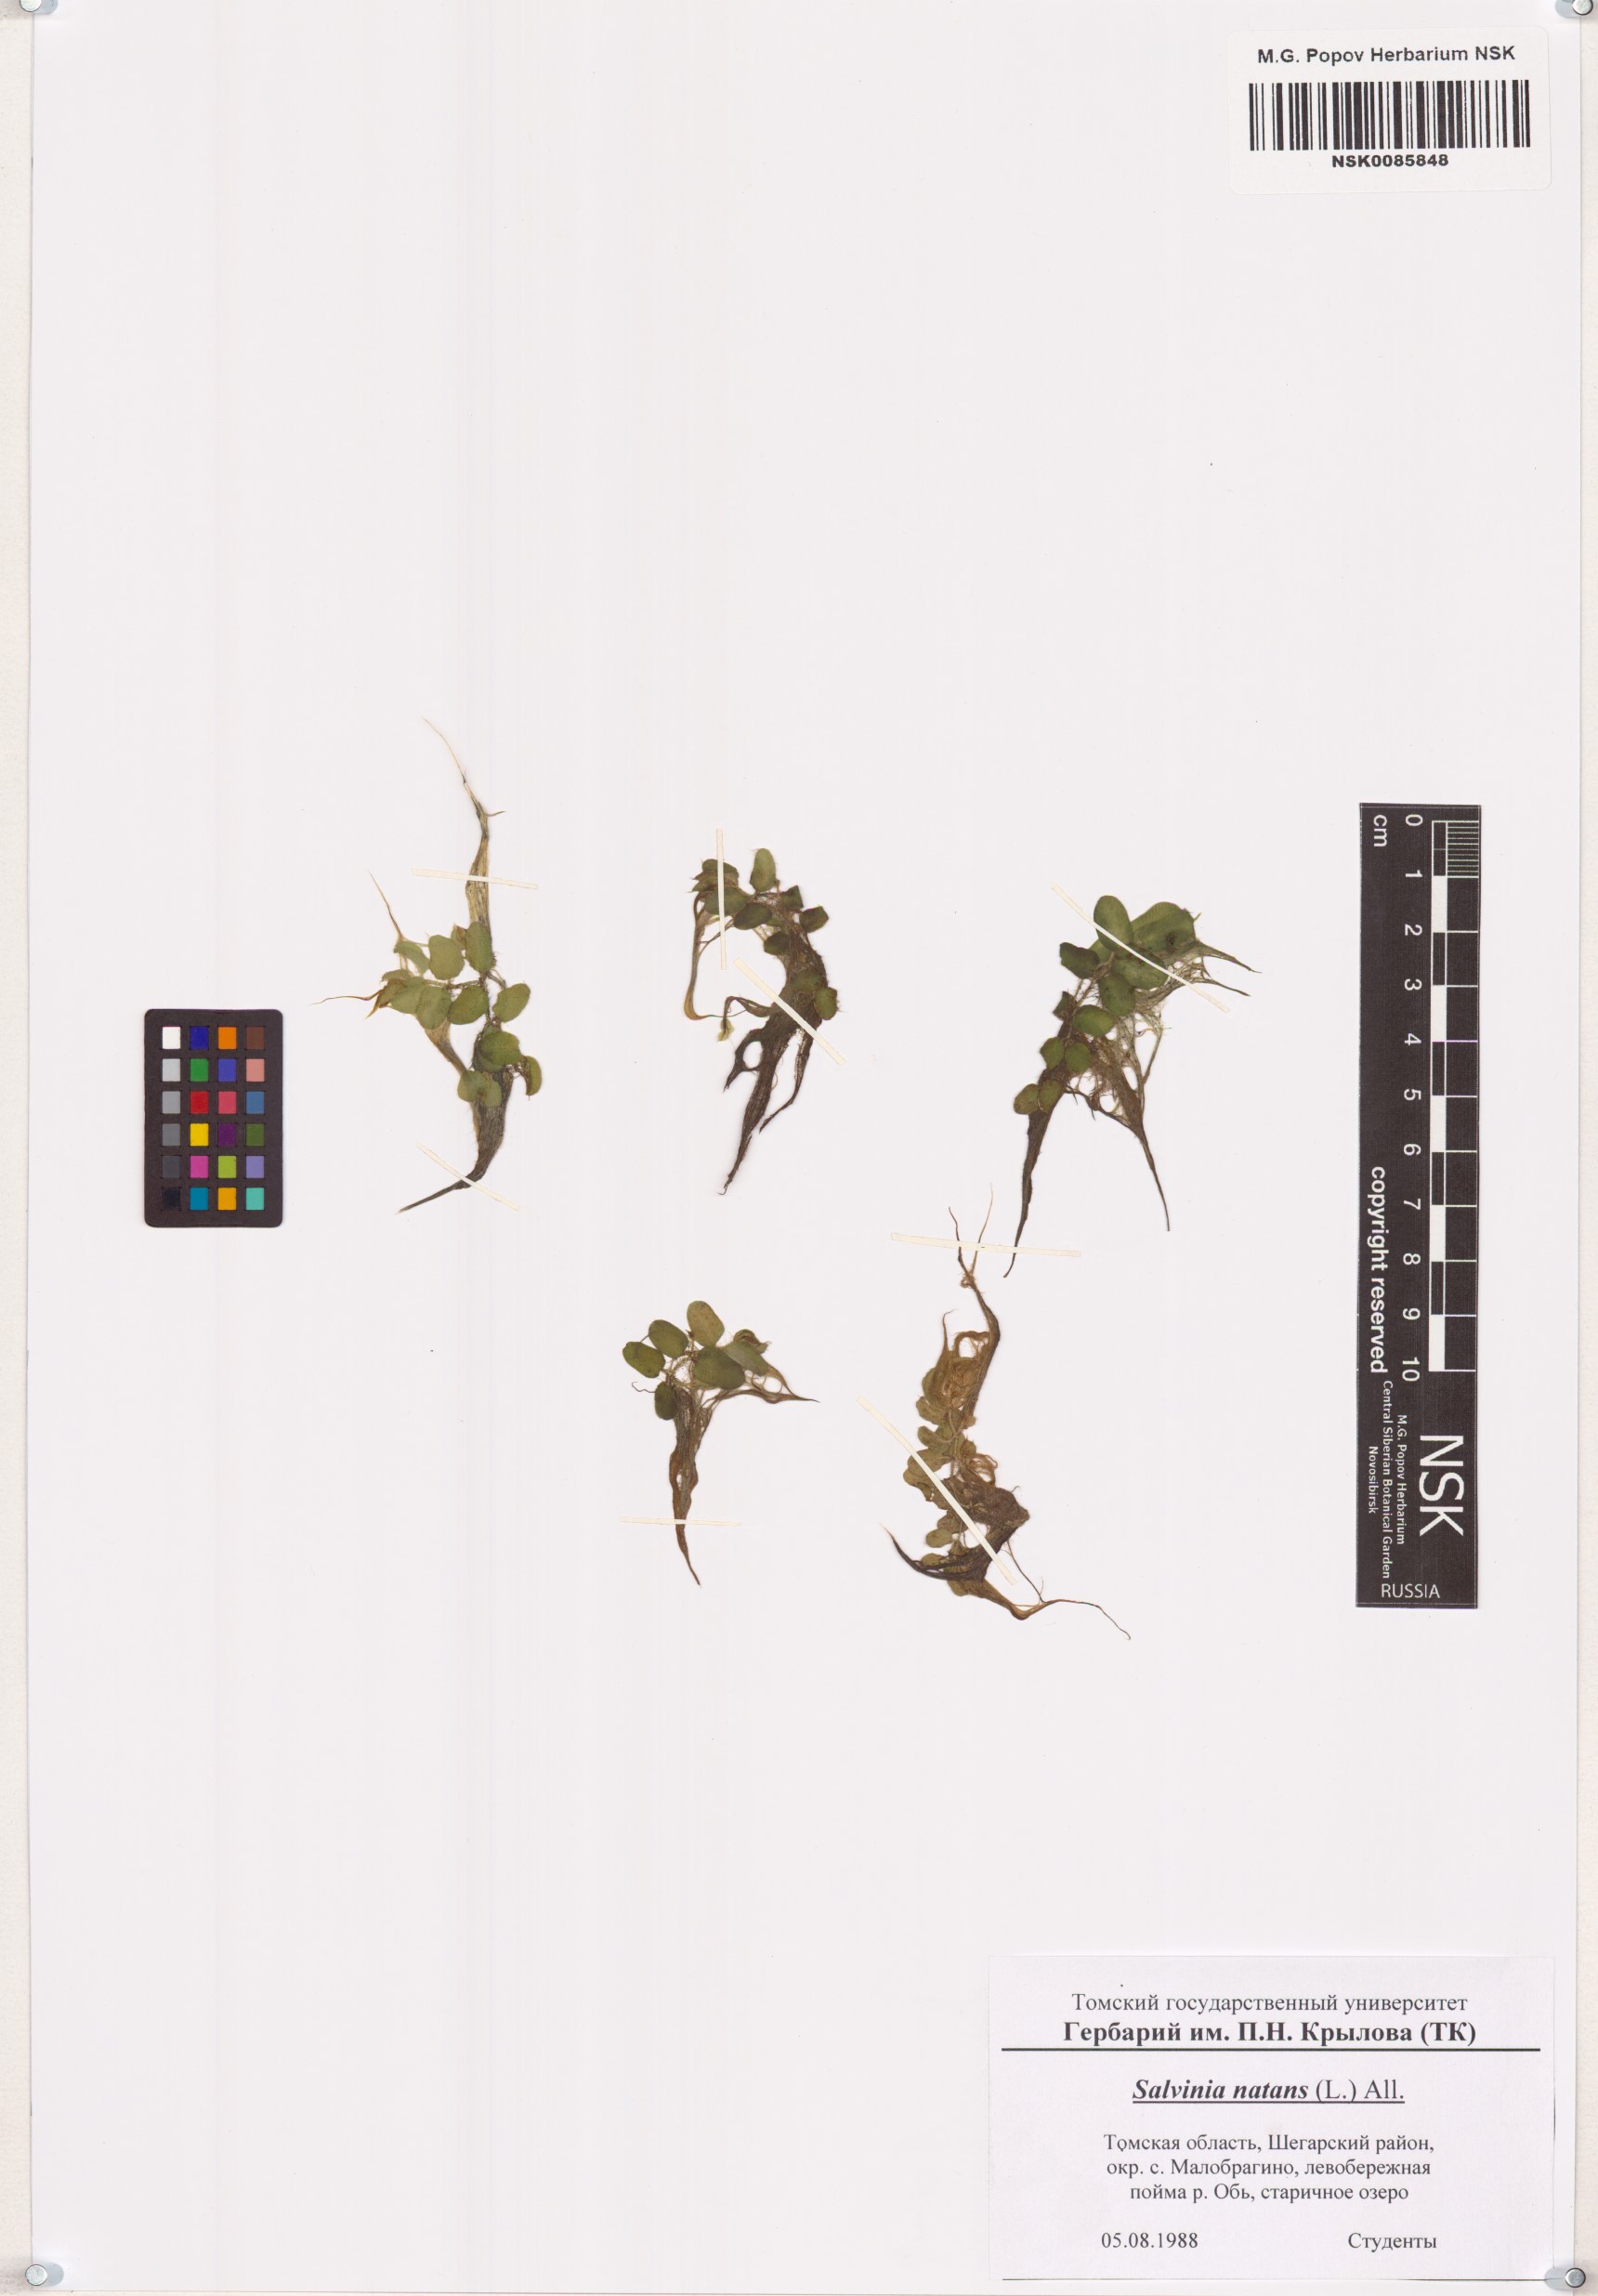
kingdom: Plantae
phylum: Tracheophyta
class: Polypodiopsida
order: Salviniales
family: Salviniaceae
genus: Salvinia
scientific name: Salvinia natans
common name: Floating fern
